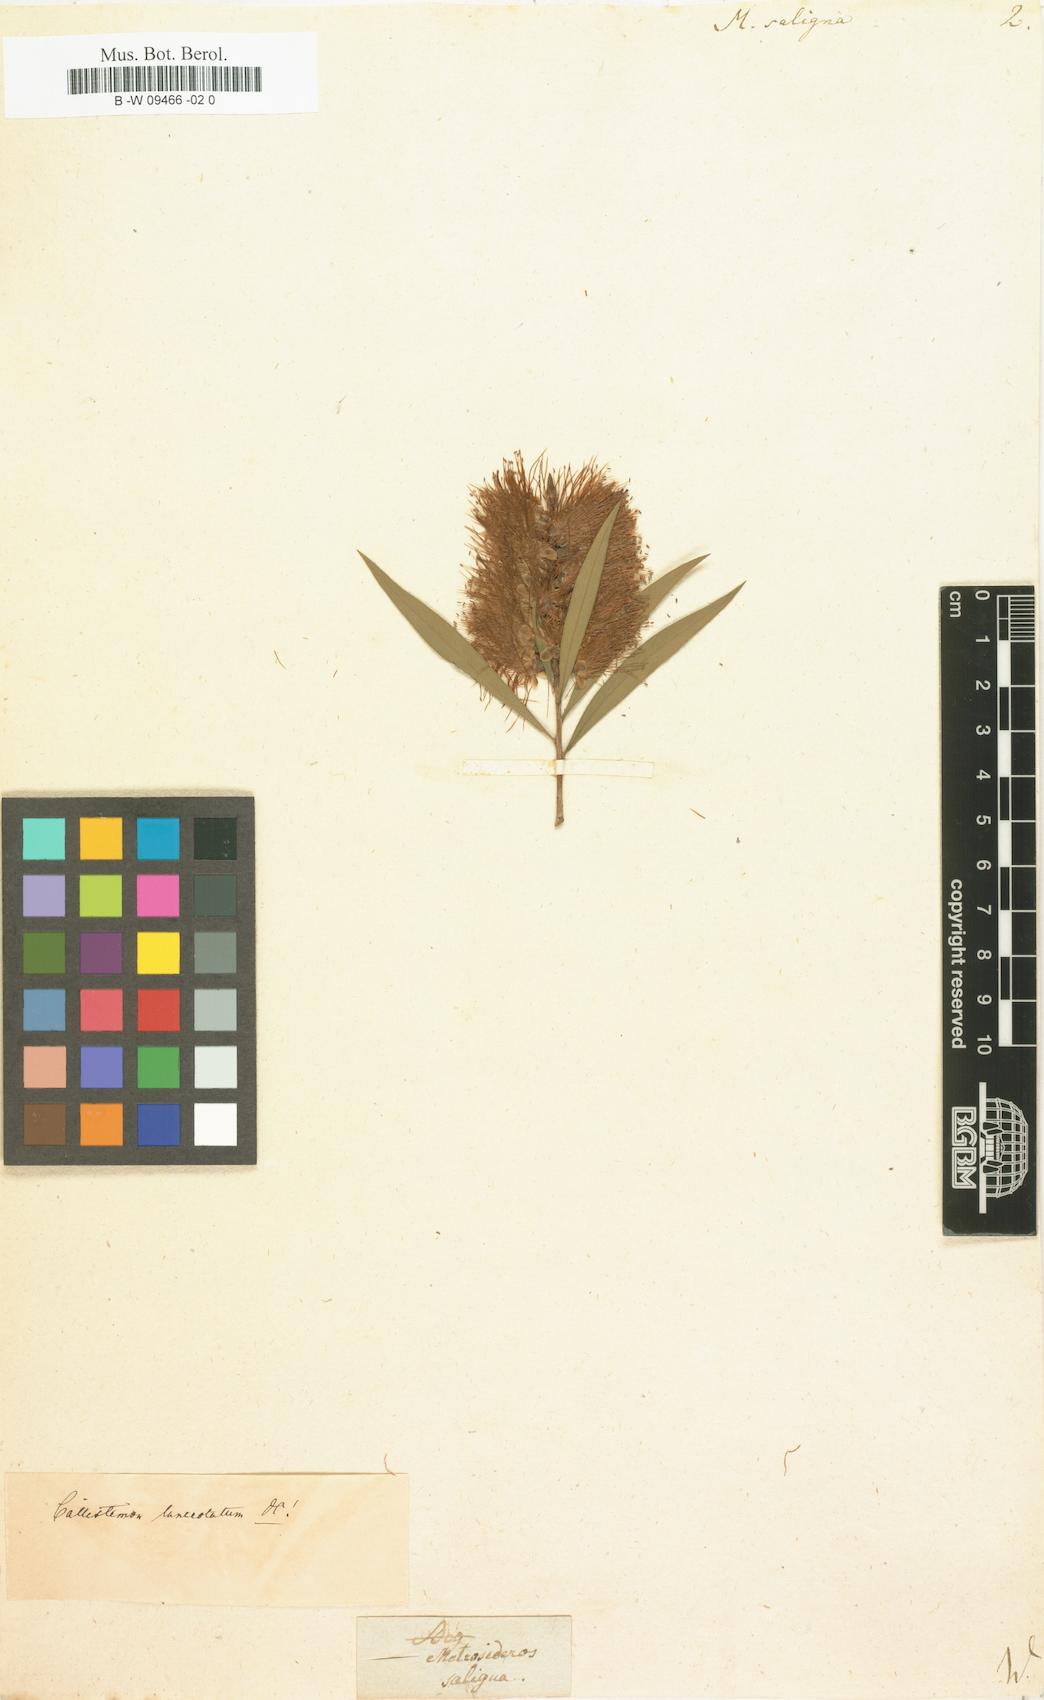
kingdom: Plantae
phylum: Tracheophyta
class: Magnoliopsida
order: Myrtales
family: Myrtaceae
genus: Callistemon
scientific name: Callistemon salignus
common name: White bottlebrush
